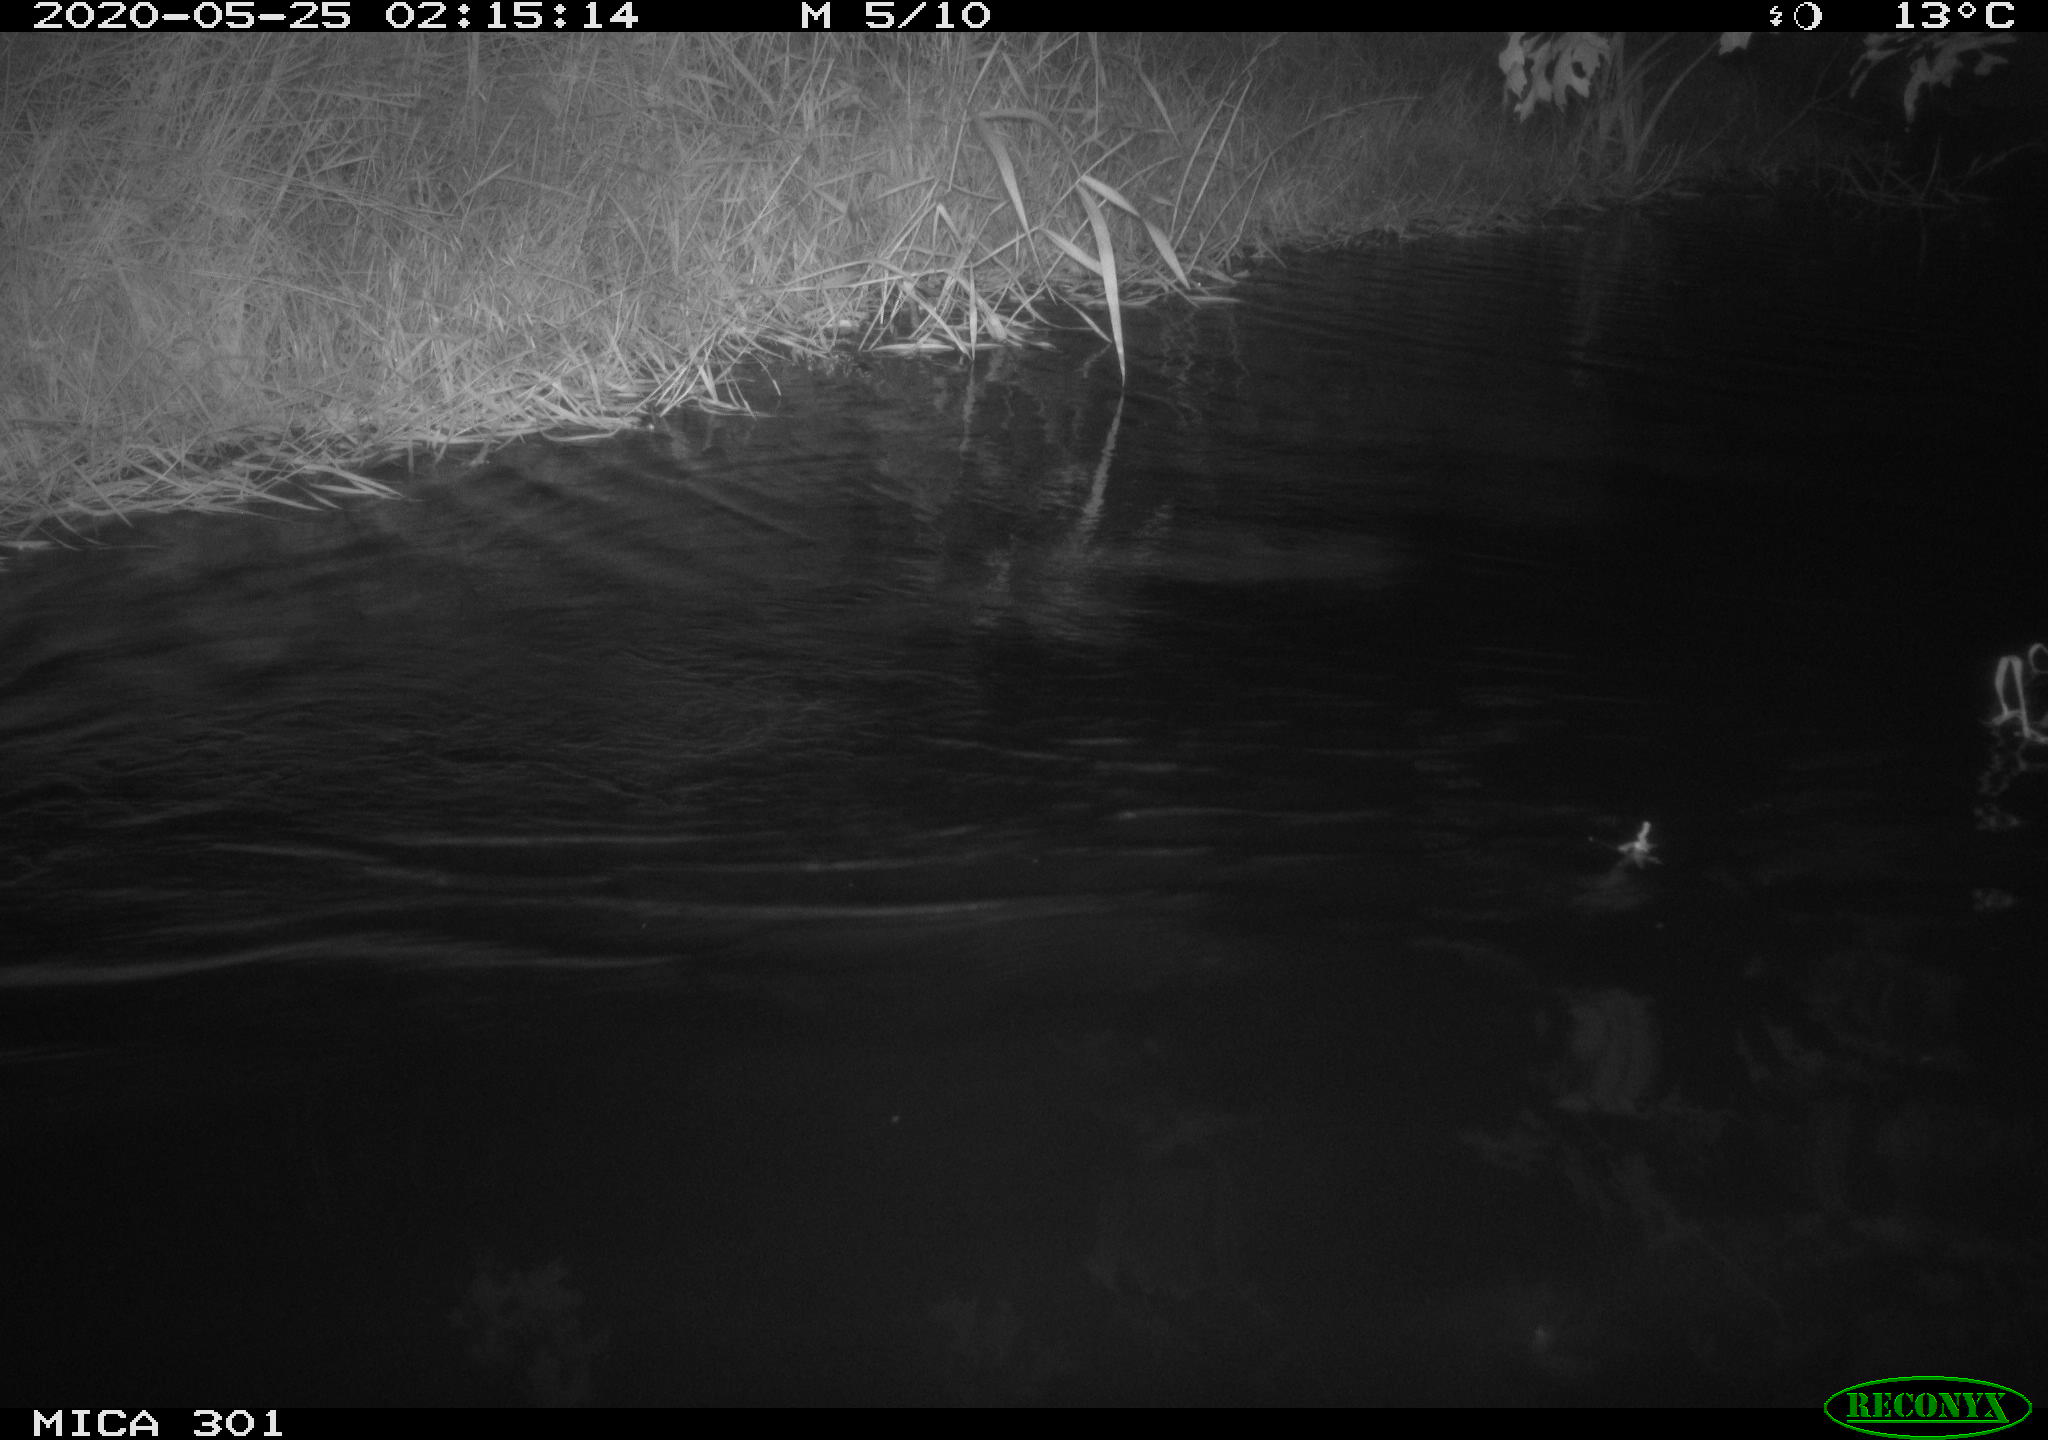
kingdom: Animalia
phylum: Chordata
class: Mammalia
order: Rodentia
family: Castoridae
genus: Castor
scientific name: Castor fiber
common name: Eurasian beaver
